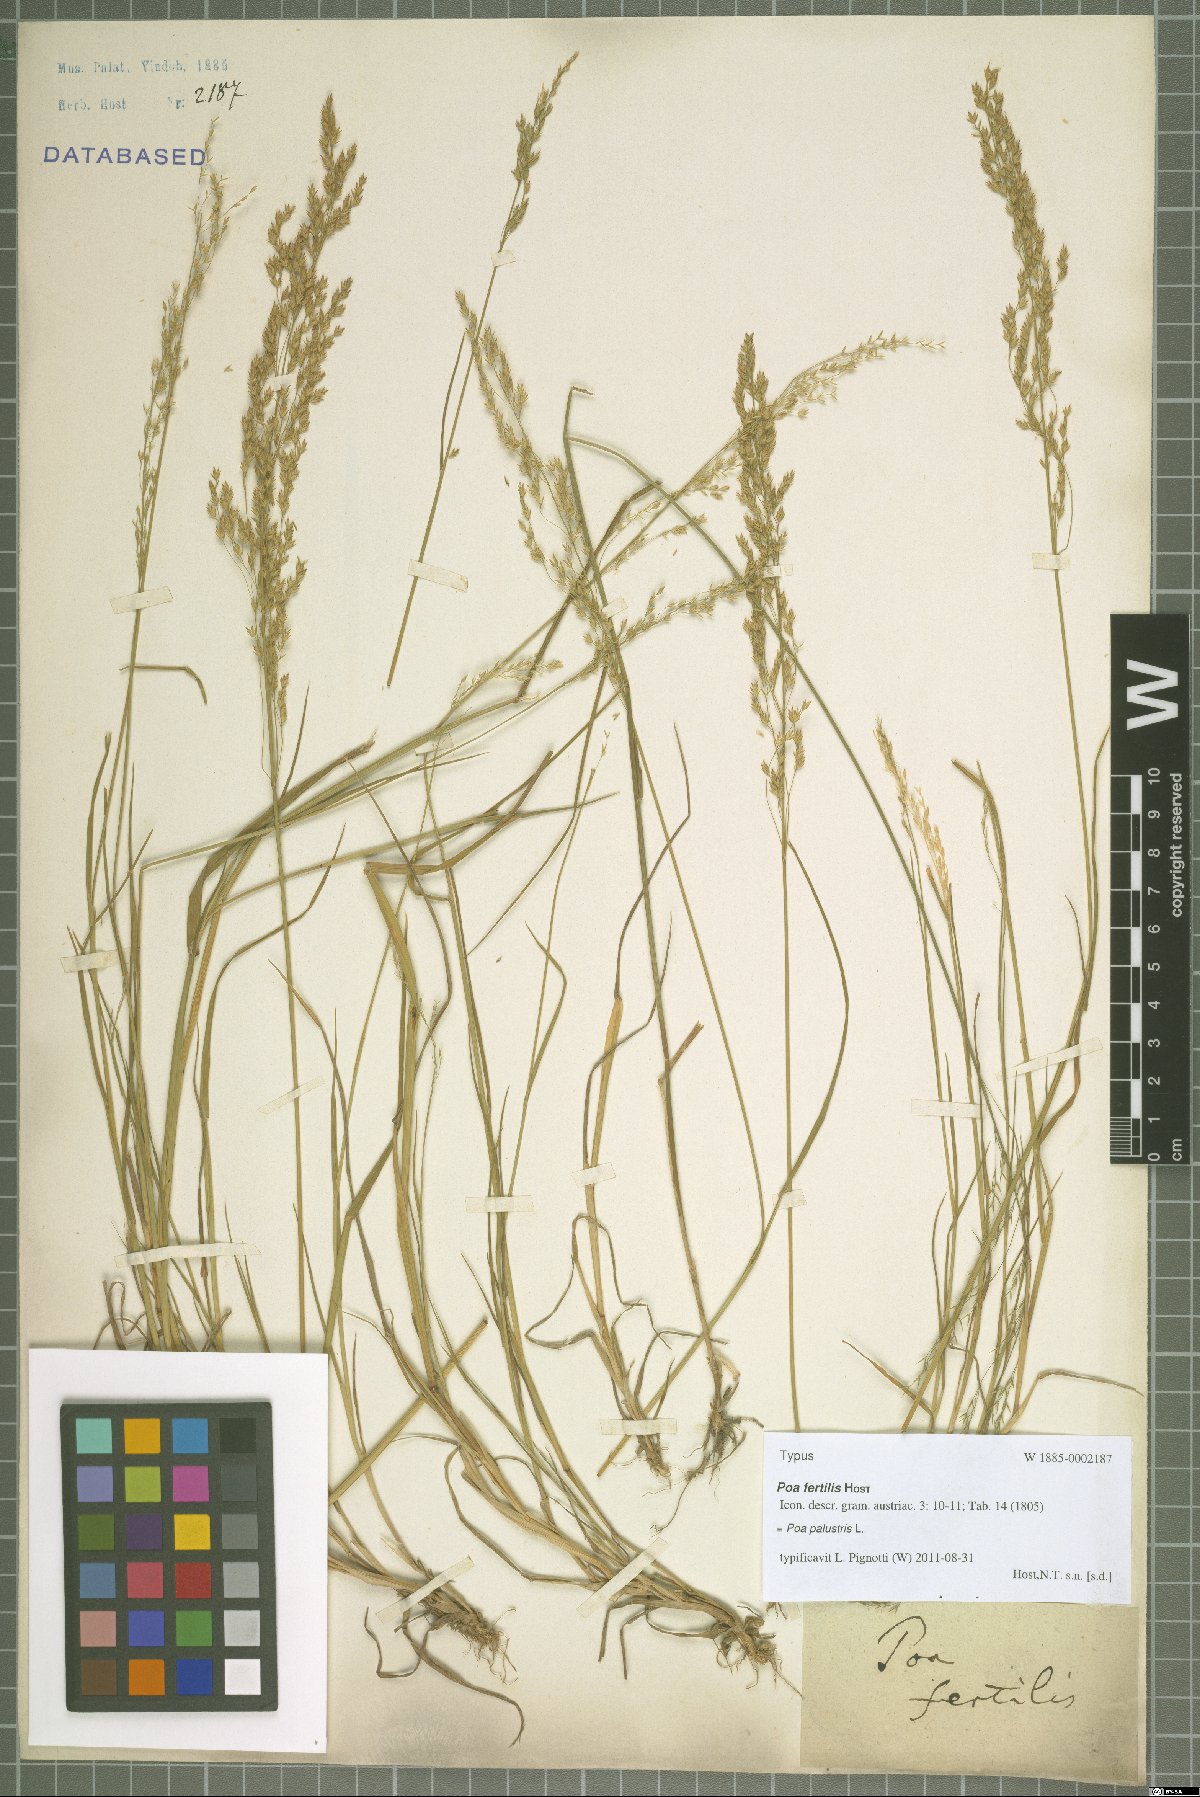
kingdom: Plantae
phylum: Tracheophyta
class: Liliopsida
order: Poales
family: Poaceae
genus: Poa
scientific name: Poa palustris
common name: Swamp meadow-grass
